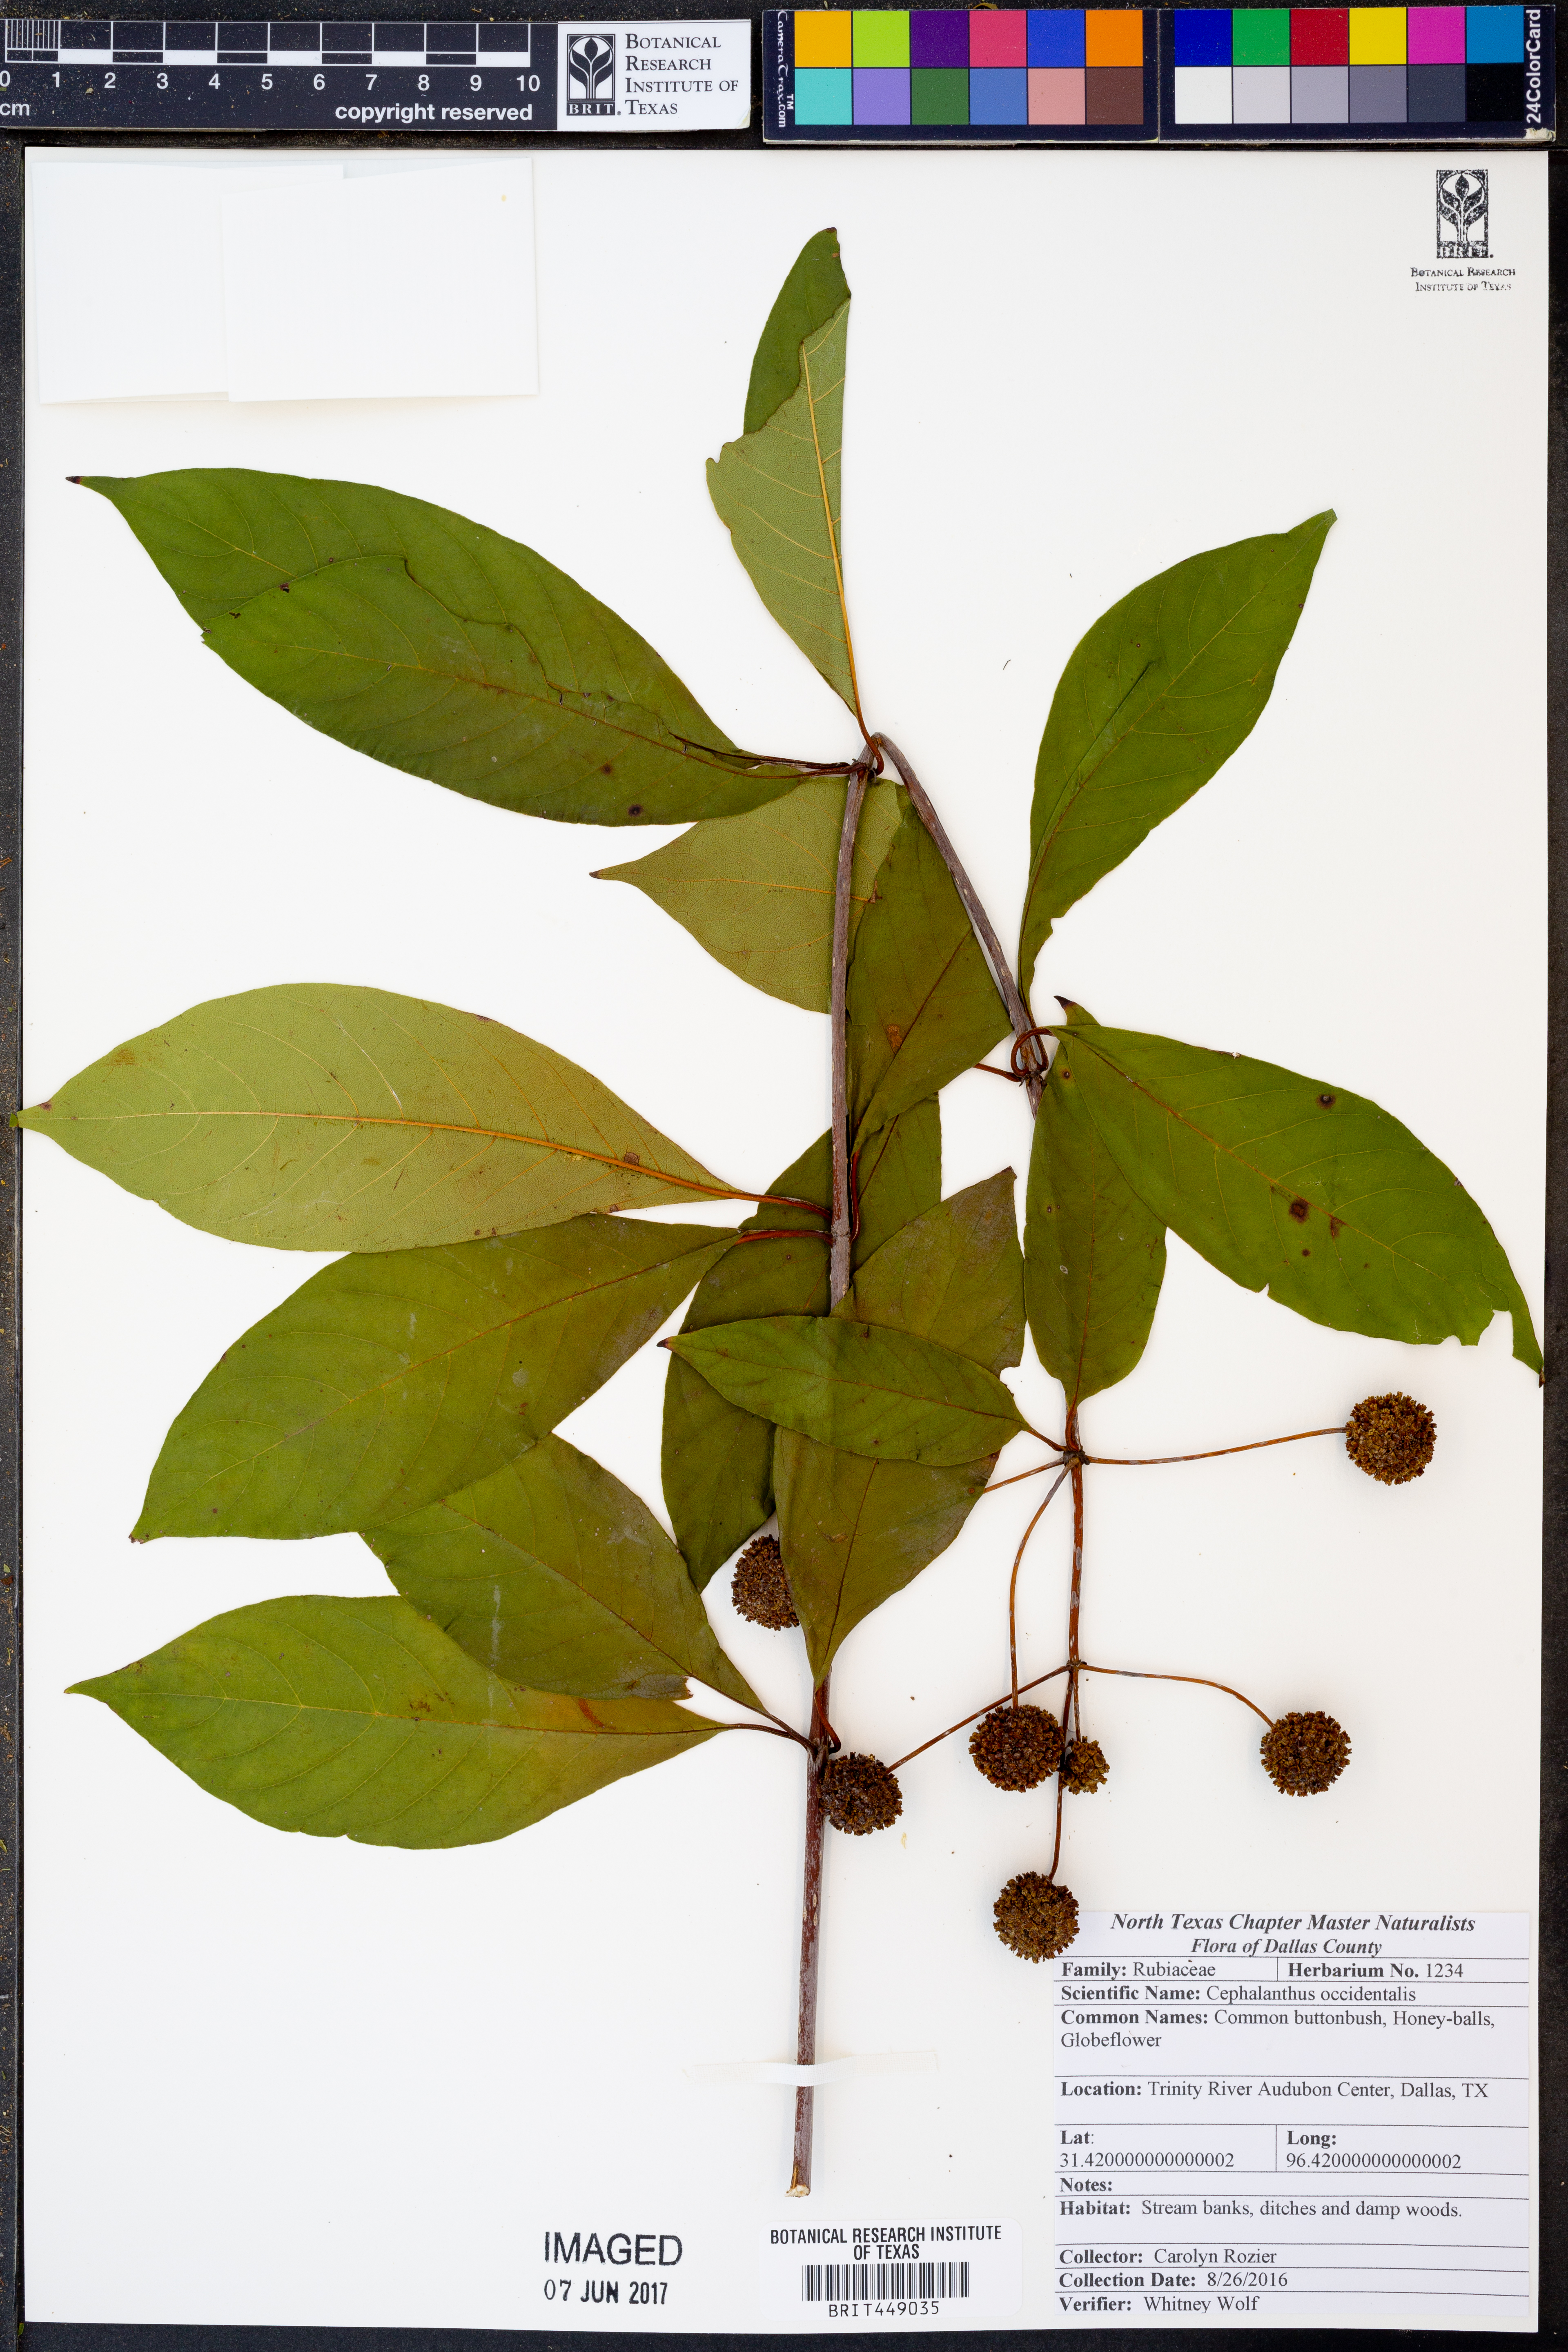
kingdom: Plantae
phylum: Tracheophyta
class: Magnoliopsida
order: Gentianales
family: Rubiaceae
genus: Cephalanthus
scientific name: Cephalanthus occidentalis
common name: Button-willow
